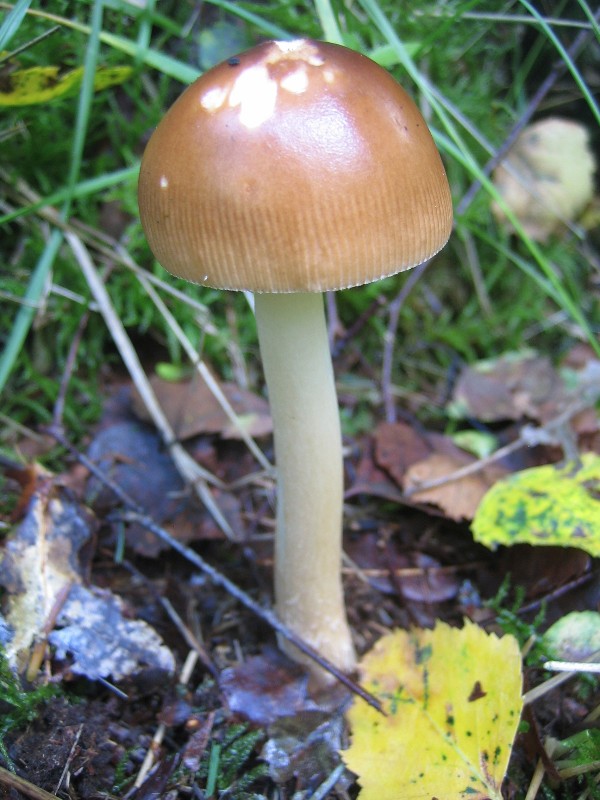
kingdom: Fungi
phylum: Basidiomycota
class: Agaricomycetes
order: Agaricales
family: Amanitaceae
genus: Amanita
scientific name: Amanita fulva
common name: brun kam-fluesvamp
